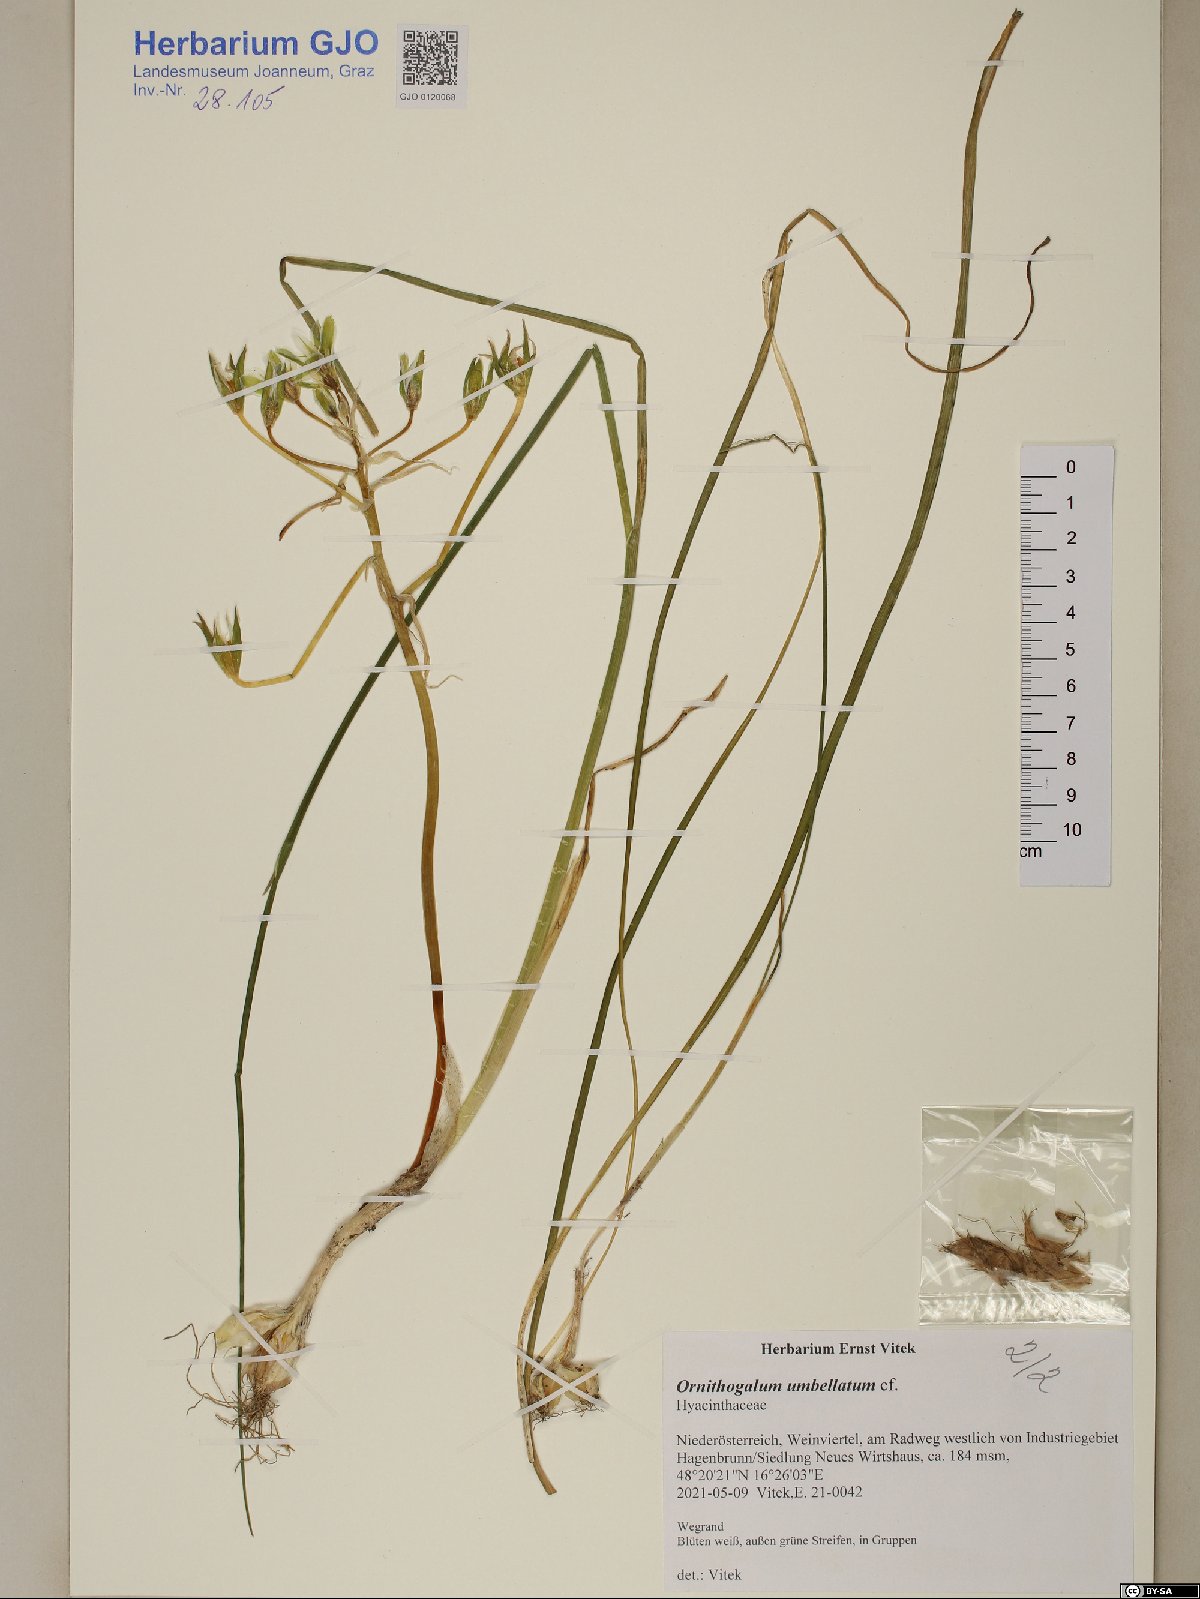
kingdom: Plantae
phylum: Tracheophyta
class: Liliopsida
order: Asparagales
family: Asparagaceae
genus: Ornithogalum
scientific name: Ornithogalum umbellatum
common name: Garden star-of-bethlehem
